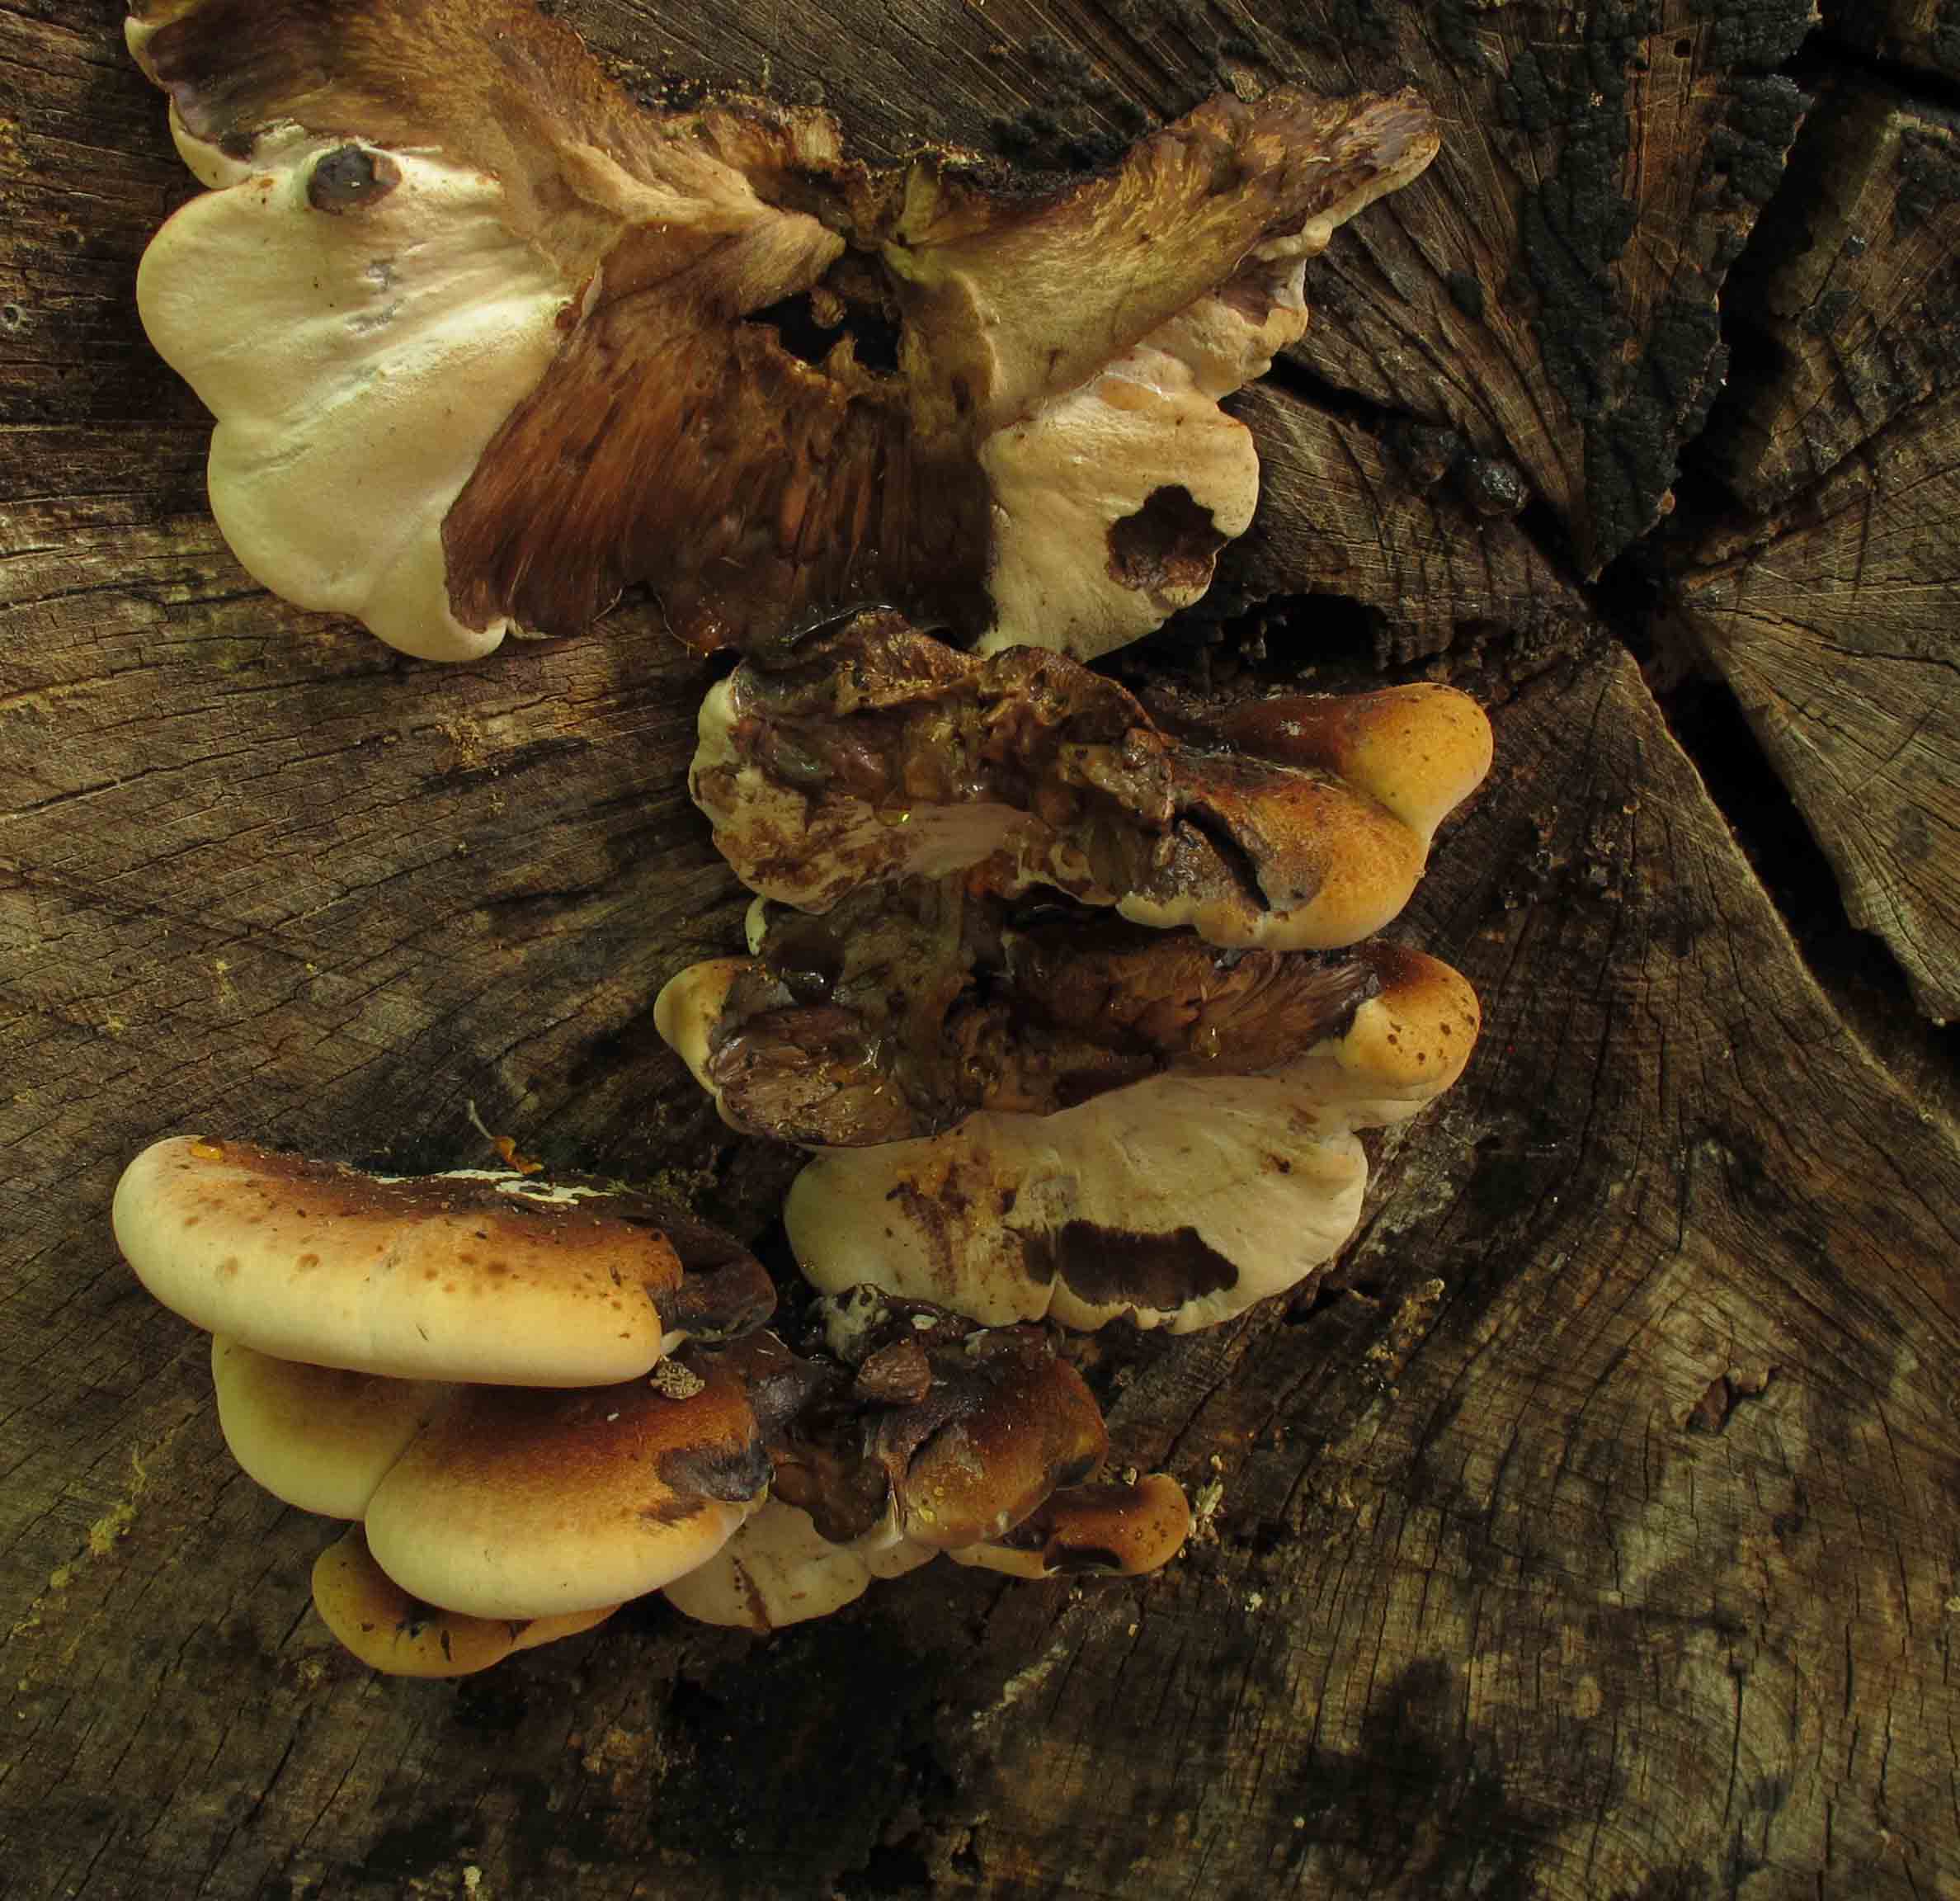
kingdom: Fungi
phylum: Basidiomycota
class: Agaricomycetes
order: Polyporales
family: Ischnodermataceae
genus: Ischnoderma
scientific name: Ischnoderma resinosum
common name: løv-tjæreporesvamp
